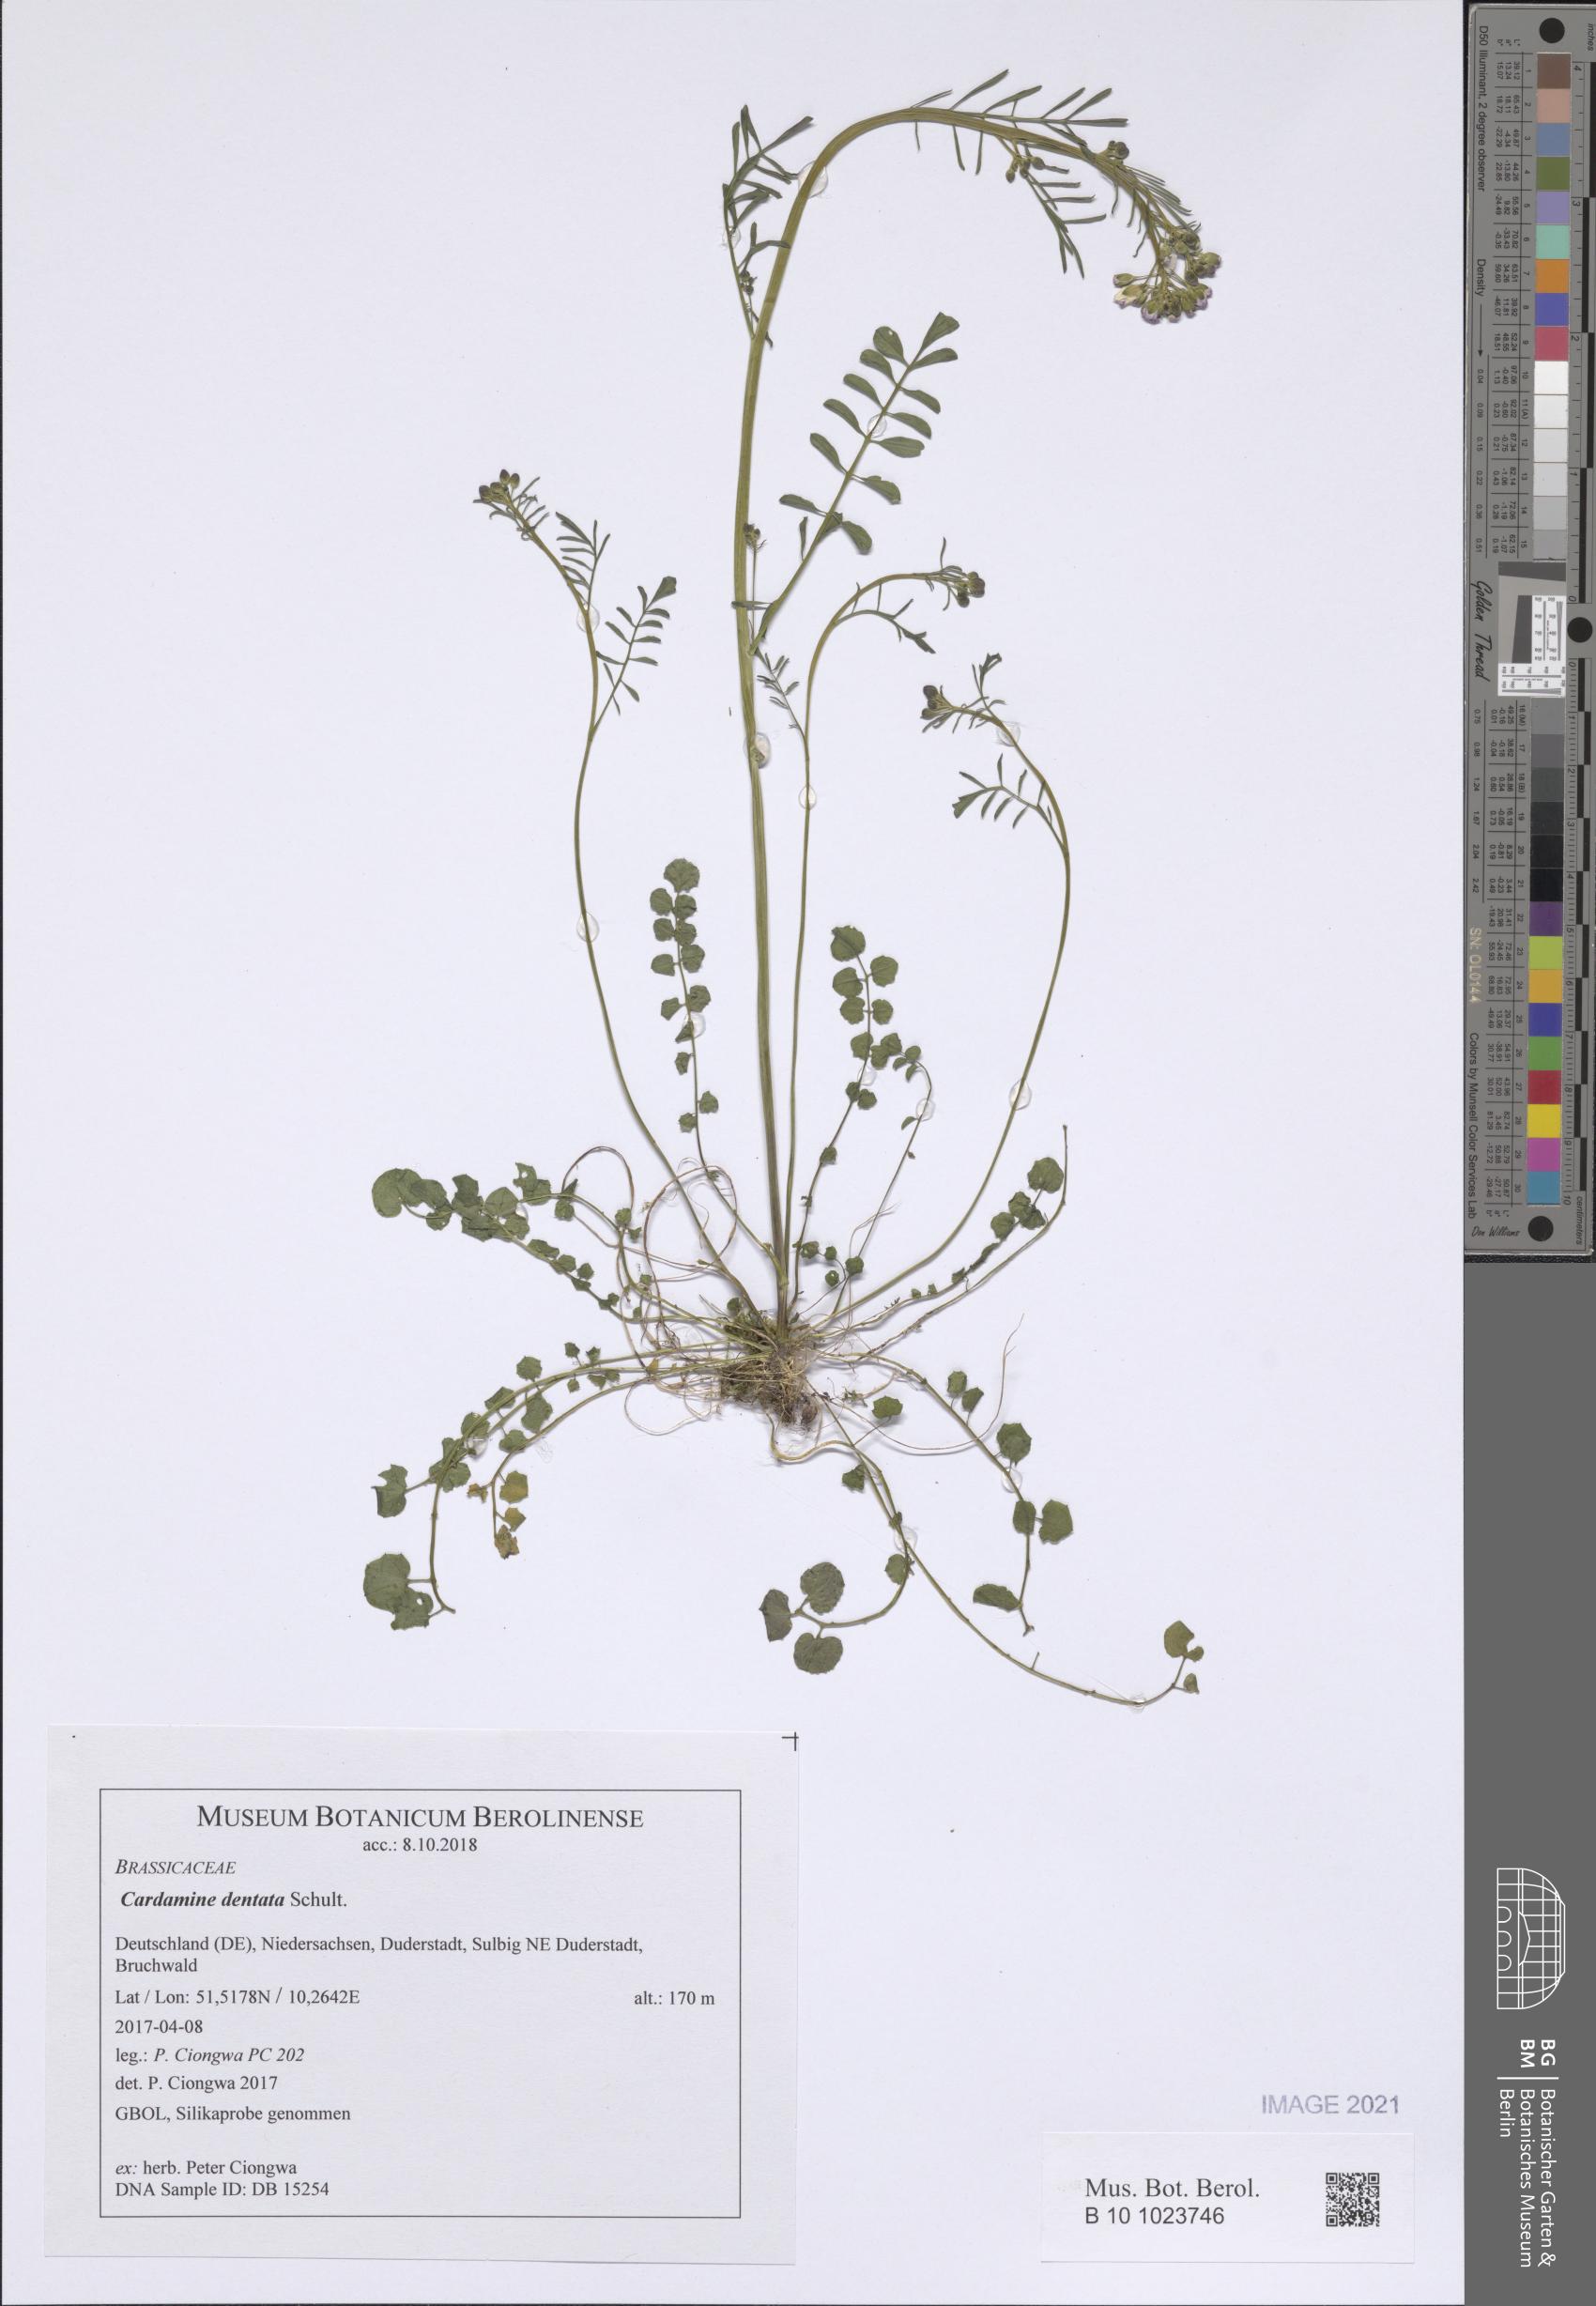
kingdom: Plantae
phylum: Tracheophyta
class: Magnoliopsida
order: Brassicales
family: Brassicaceae
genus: Cardamine
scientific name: Cardamine dentata
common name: Toothed bittercress
